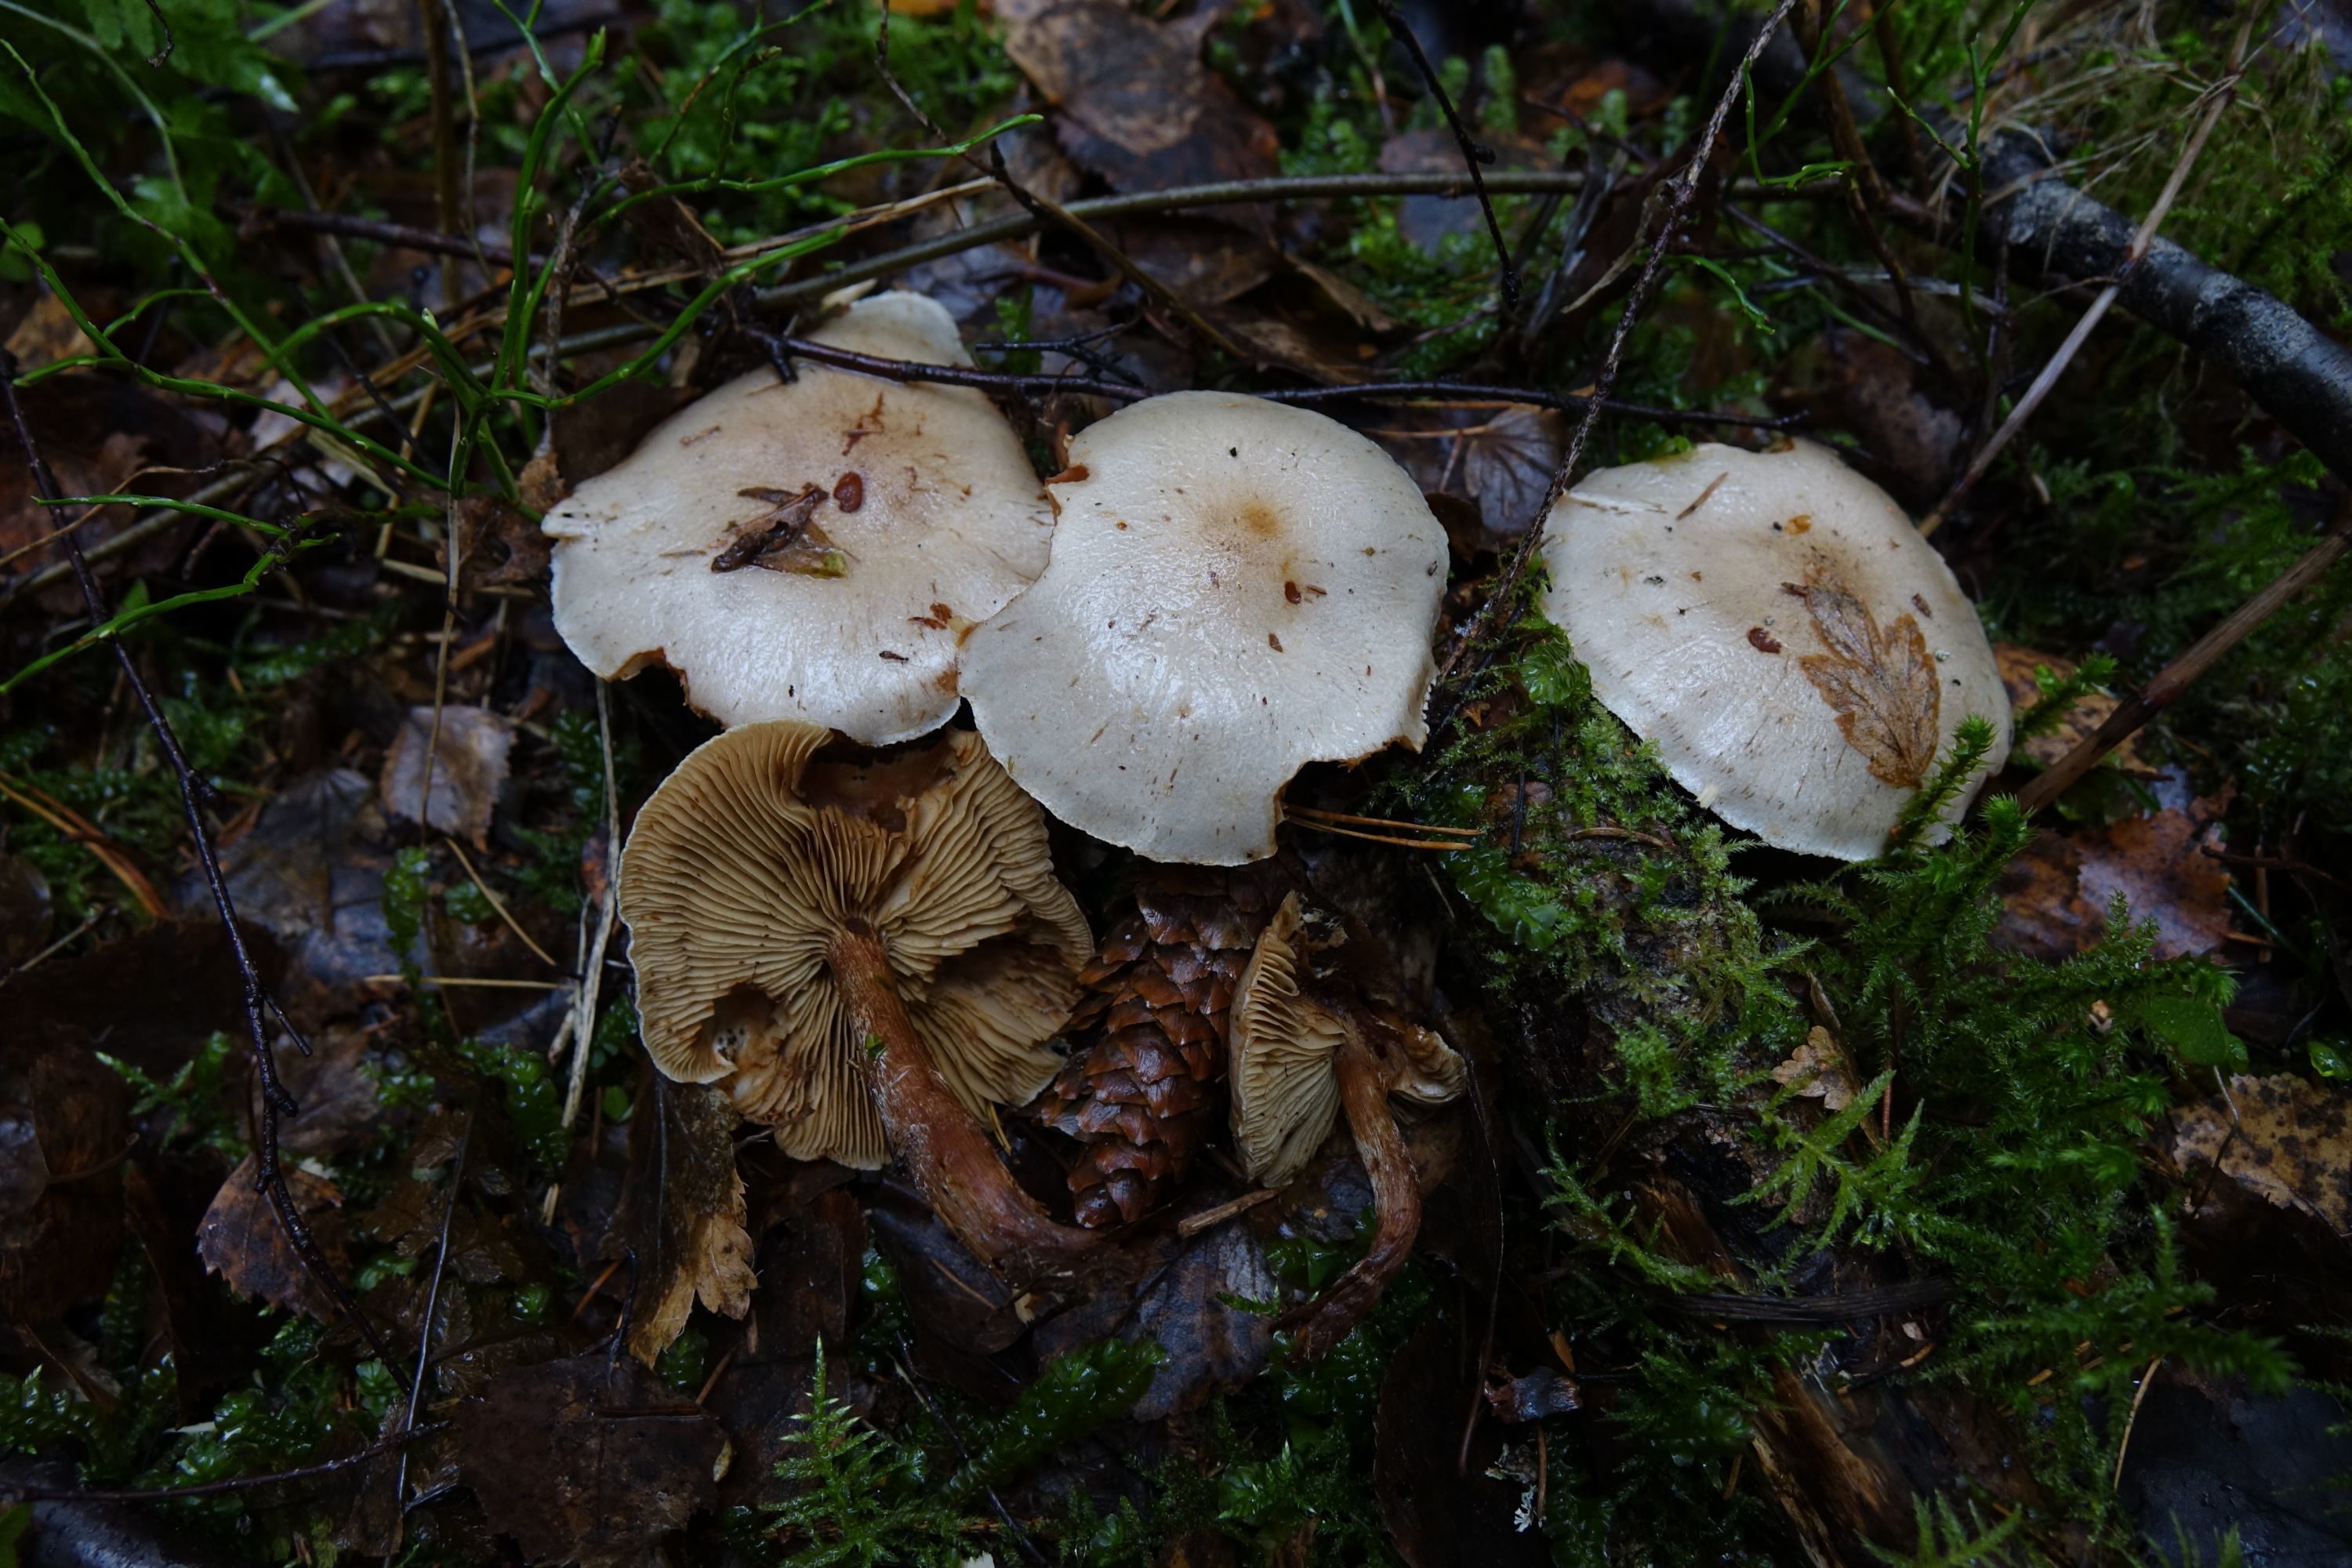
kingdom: Fungi
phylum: Basidiomycota
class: Agaricomycetes
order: Agaricales
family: Strophariaceae
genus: Pholiota
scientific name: Pholiota lenta
